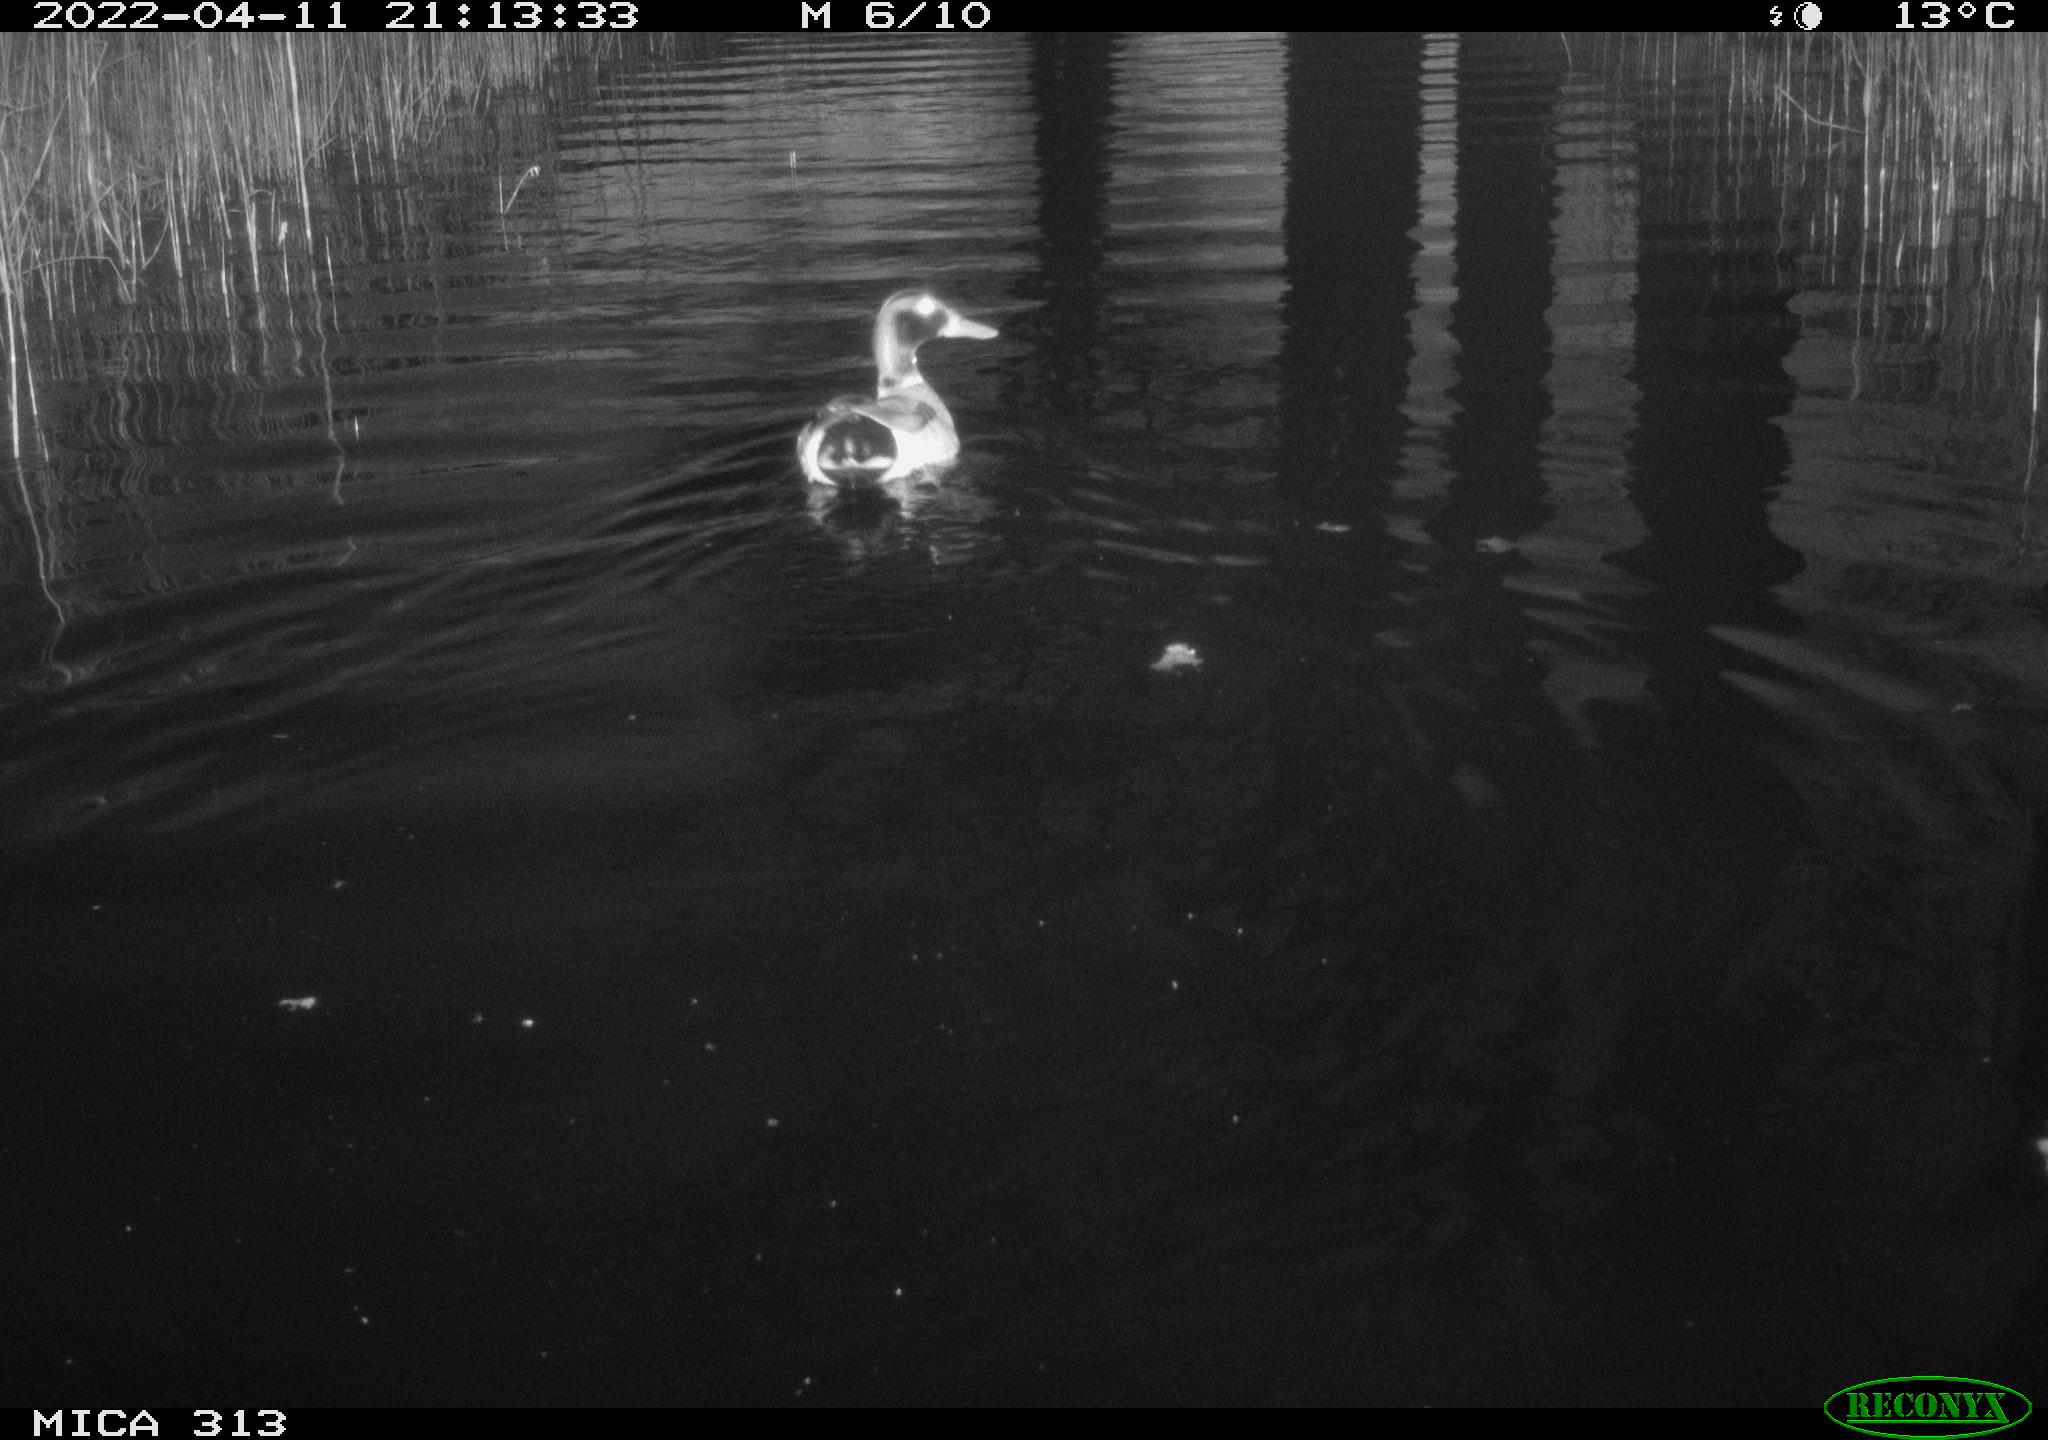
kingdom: Animalia
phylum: Chordata
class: Aves
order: Anseriformes
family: Anatidae
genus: Anas
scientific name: Anas platyrhynchos
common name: Mallard
